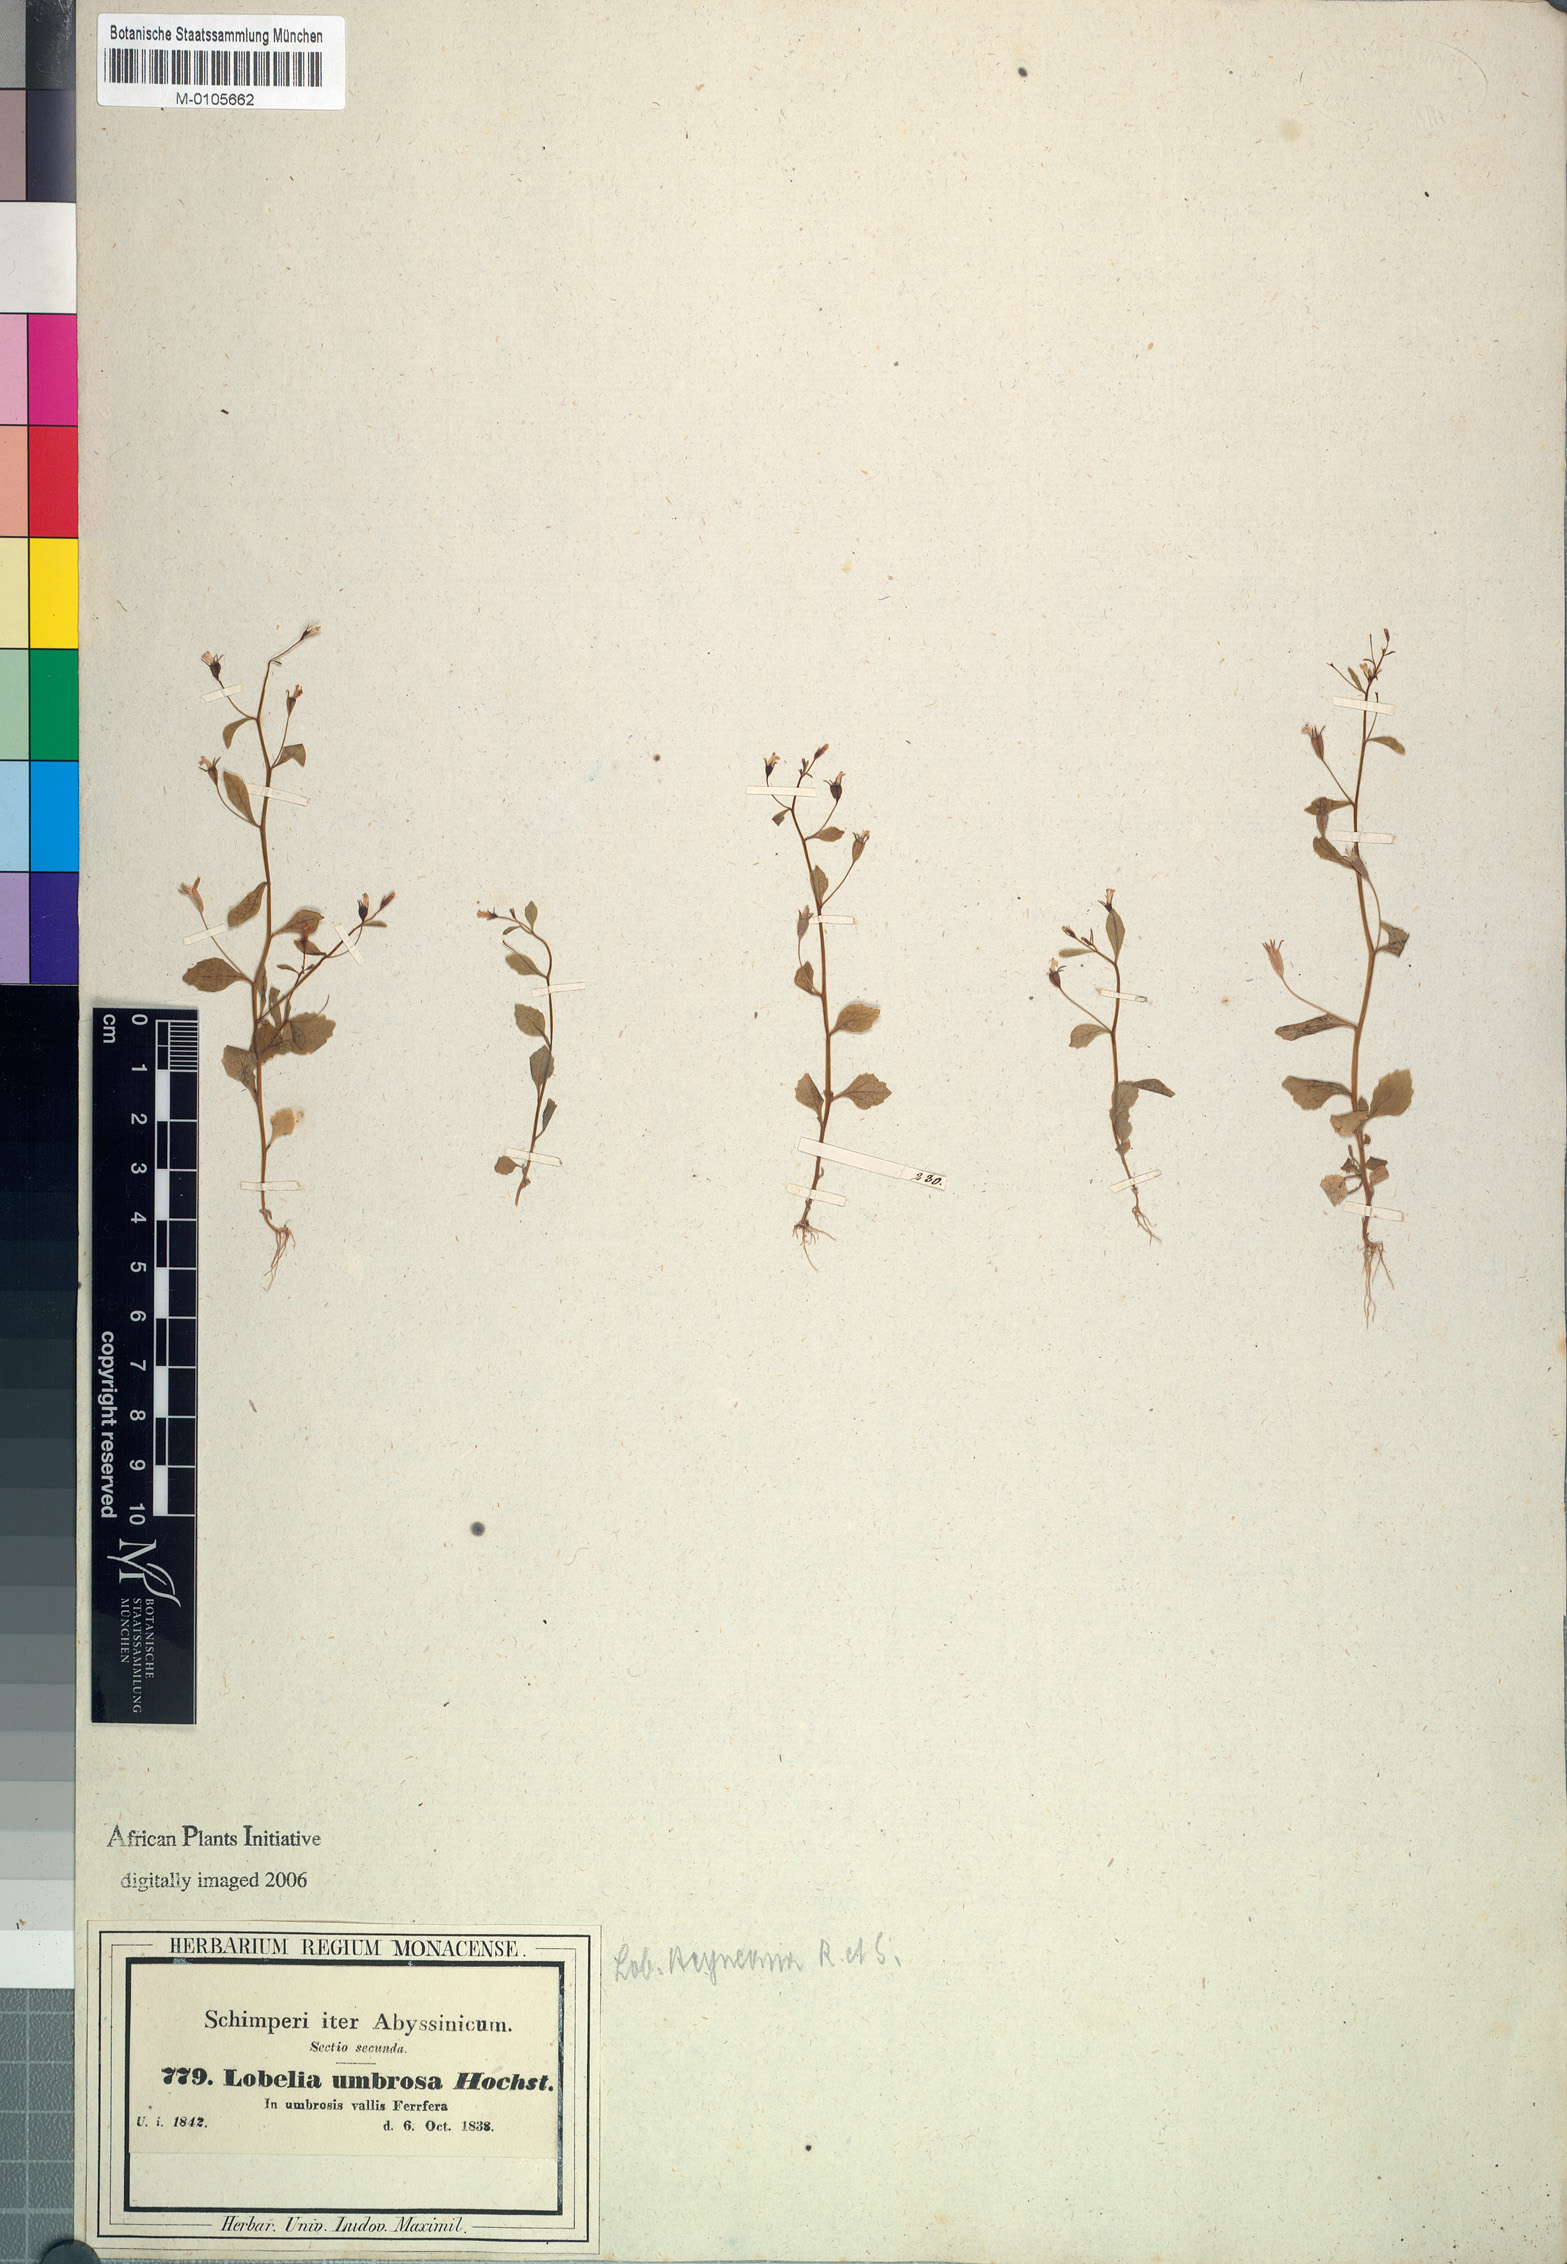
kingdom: Plantae
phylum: Tracheophyta
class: Magnoliopsida
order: Asterales
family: Campanulaceae
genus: Lobelia
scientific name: Lobelia heyneana
